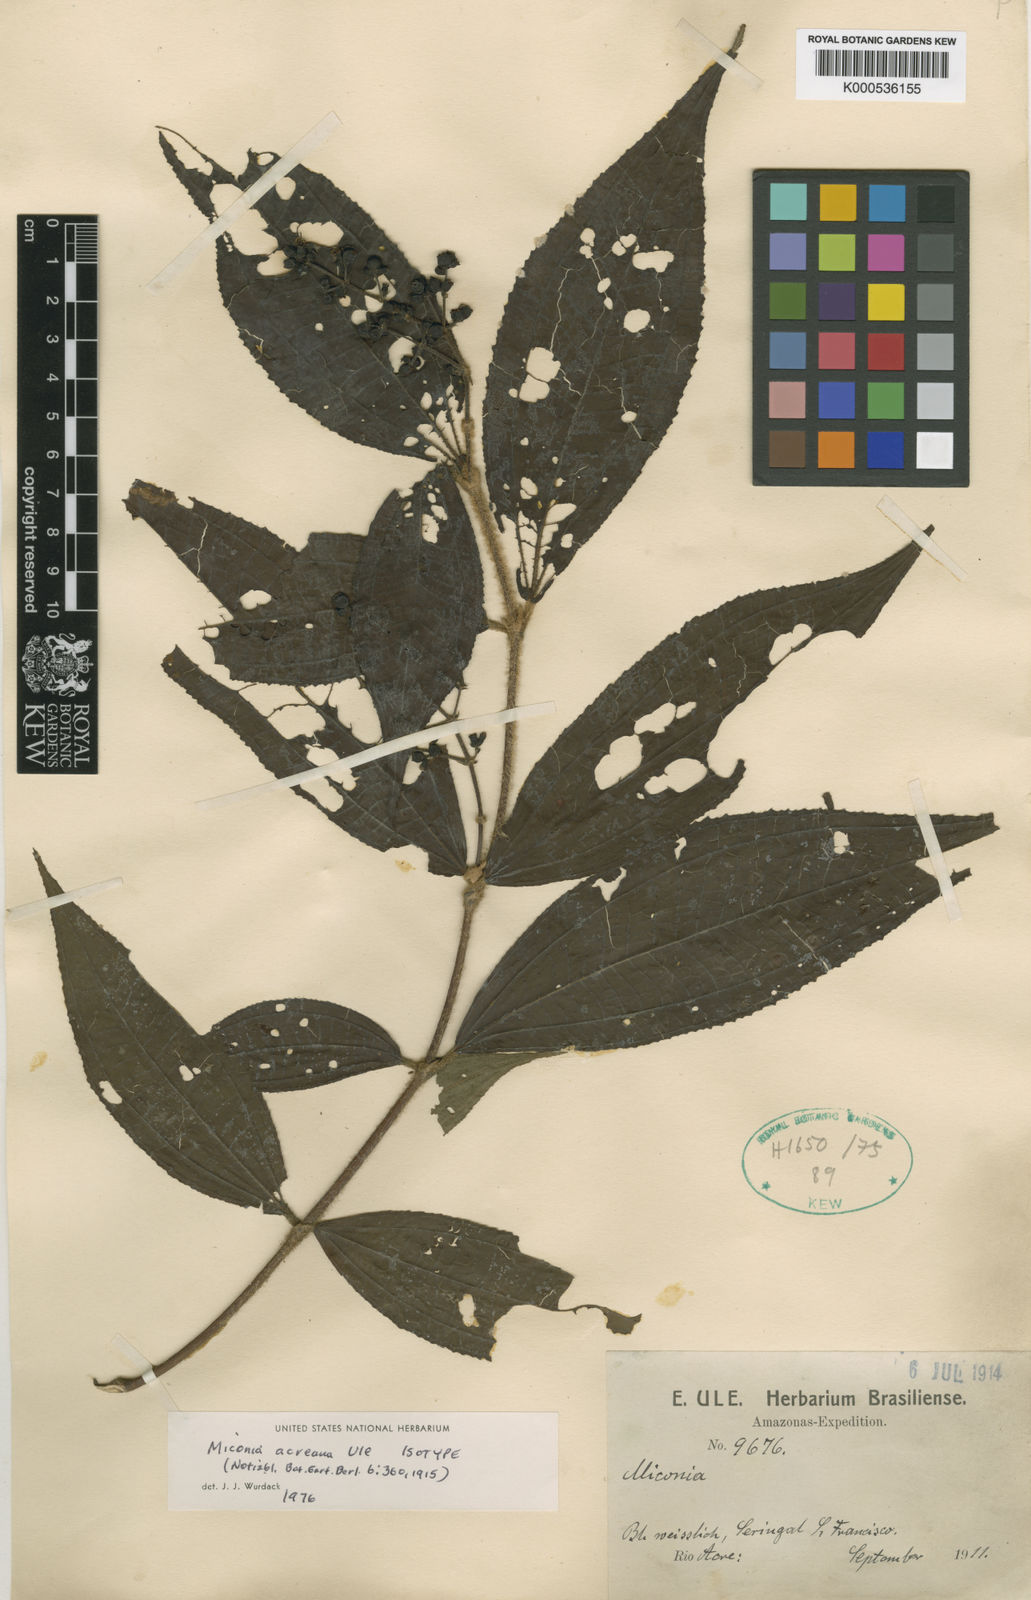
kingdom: Plantae
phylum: Tracheophyta
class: Magnoliopsida
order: Myrtales
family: Melastomataceae
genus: Miconia
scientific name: Miconia acreana
